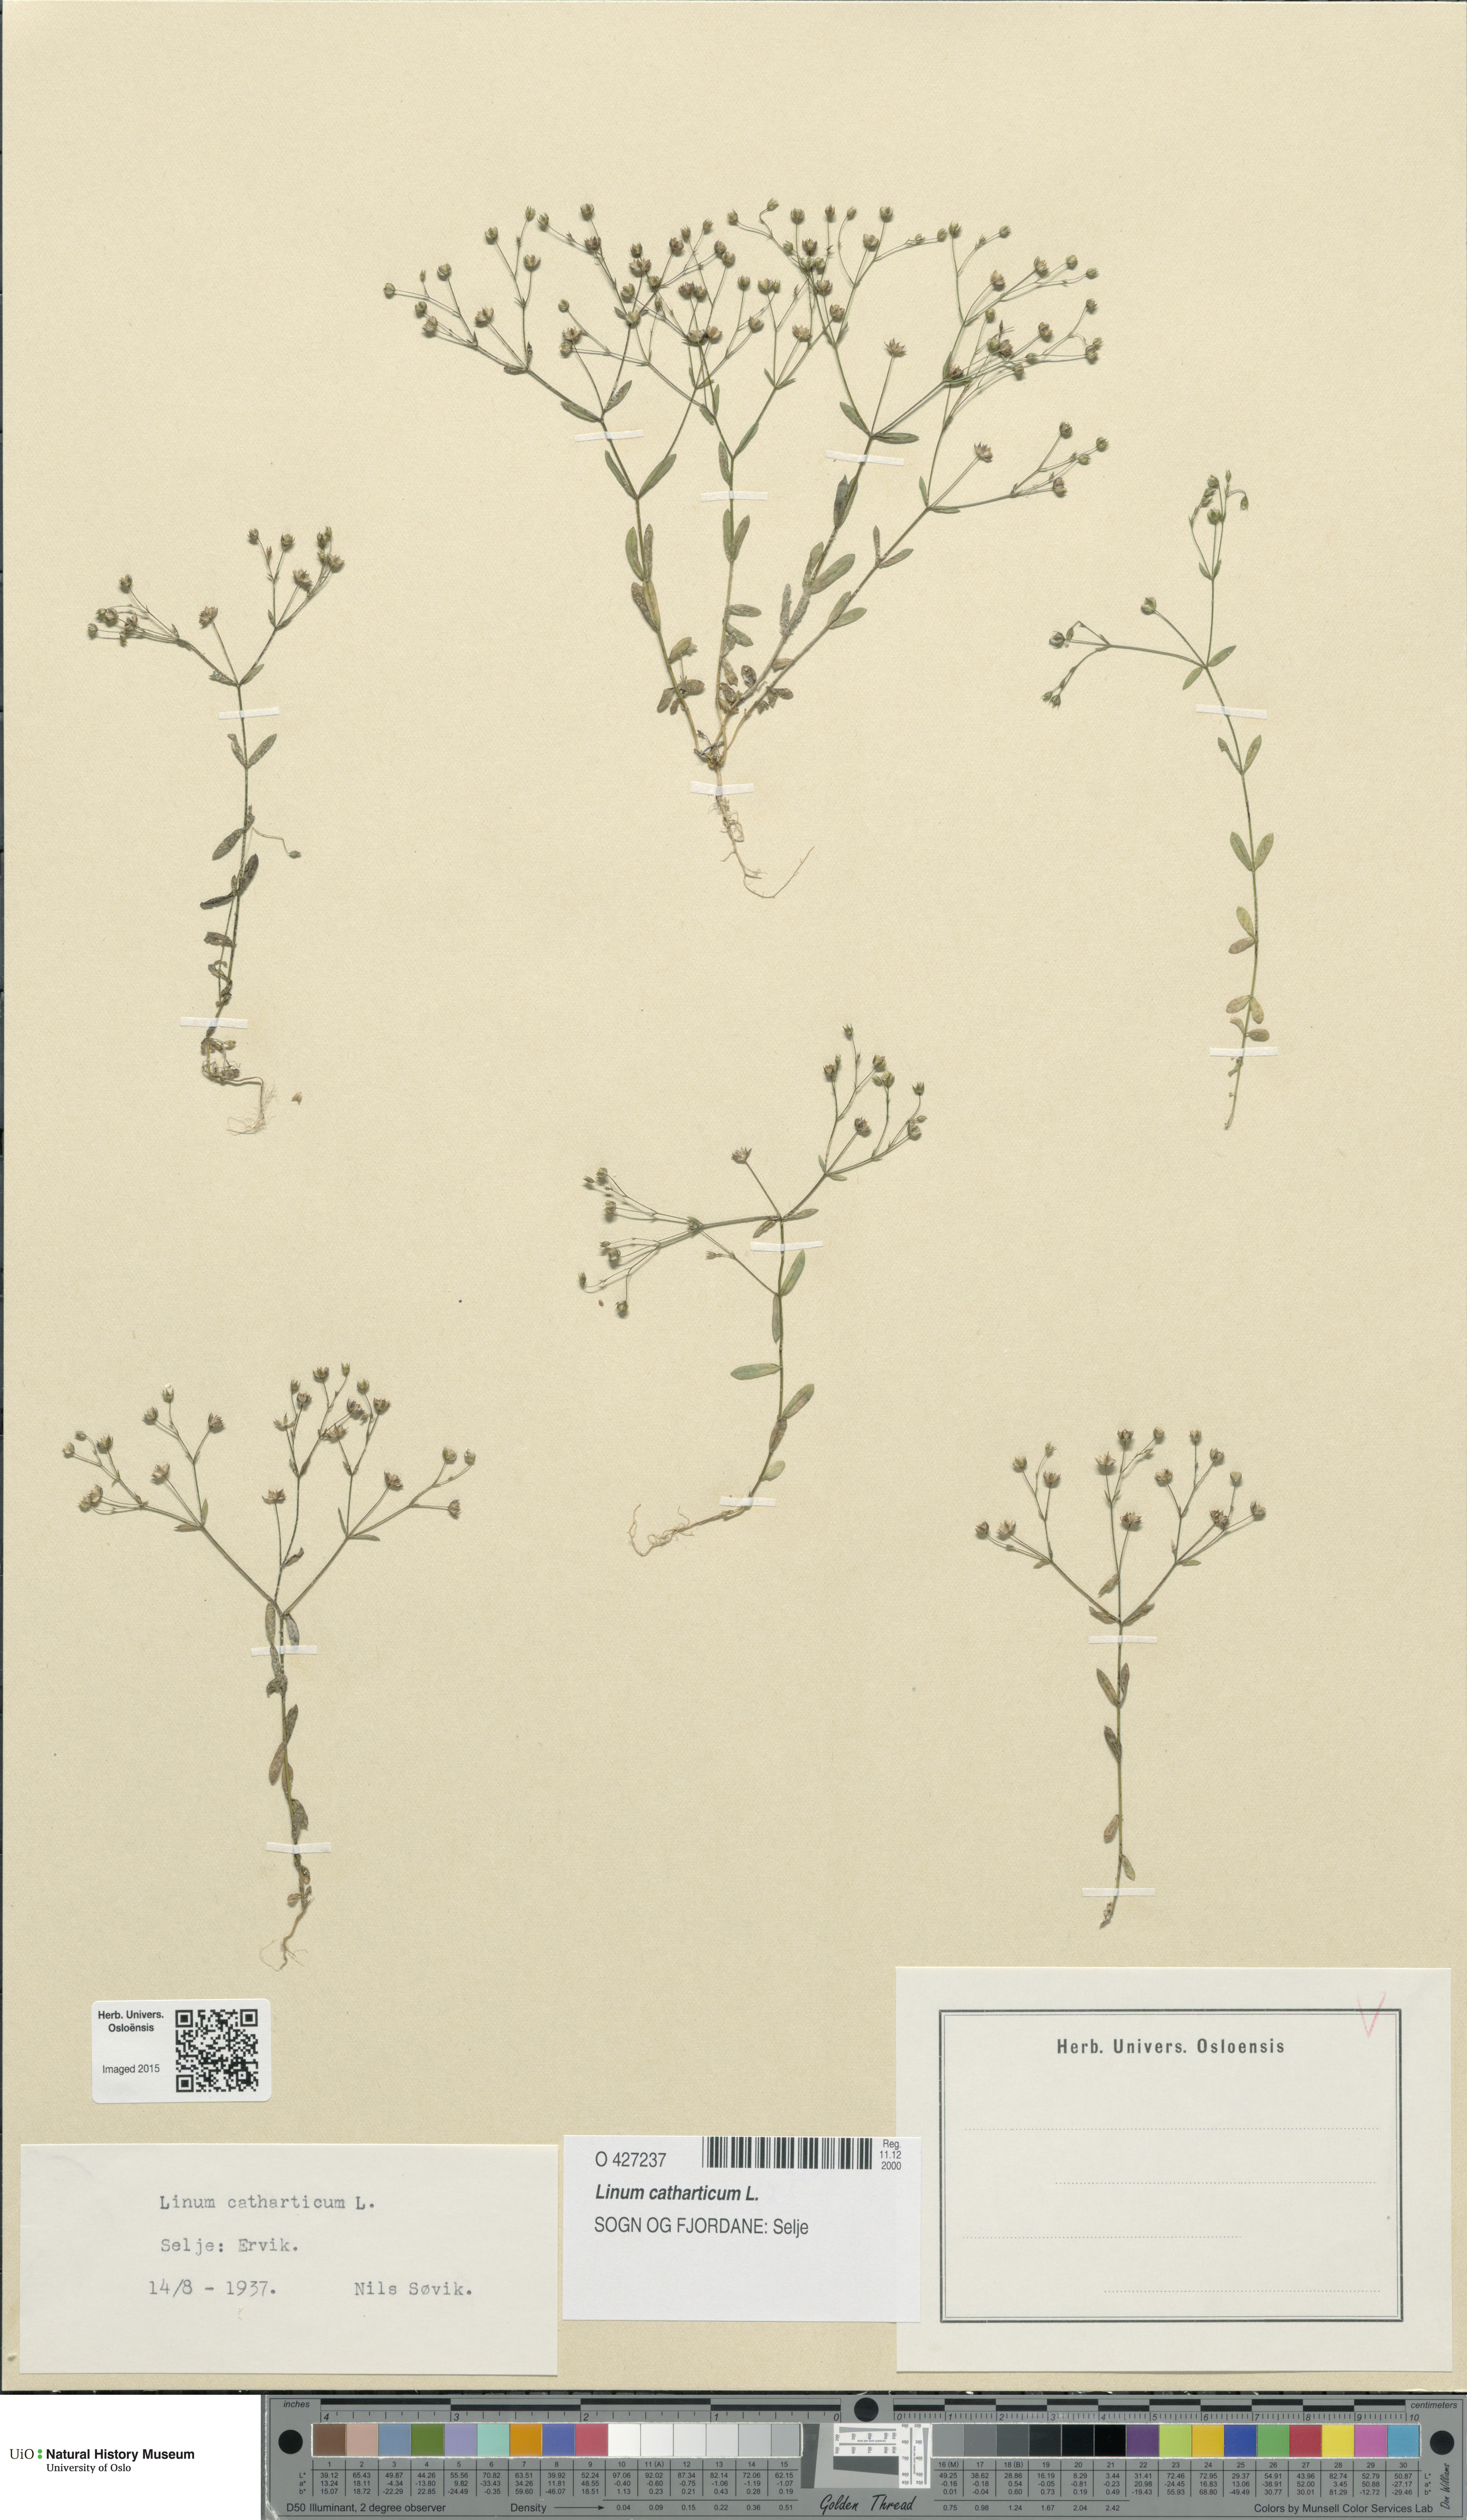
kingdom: Plantae
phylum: Tracheophyta
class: Magnoliopsida
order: Malpighiales
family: Linaceae
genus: Linum
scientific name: Linum catharticum
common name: Fairy flax
